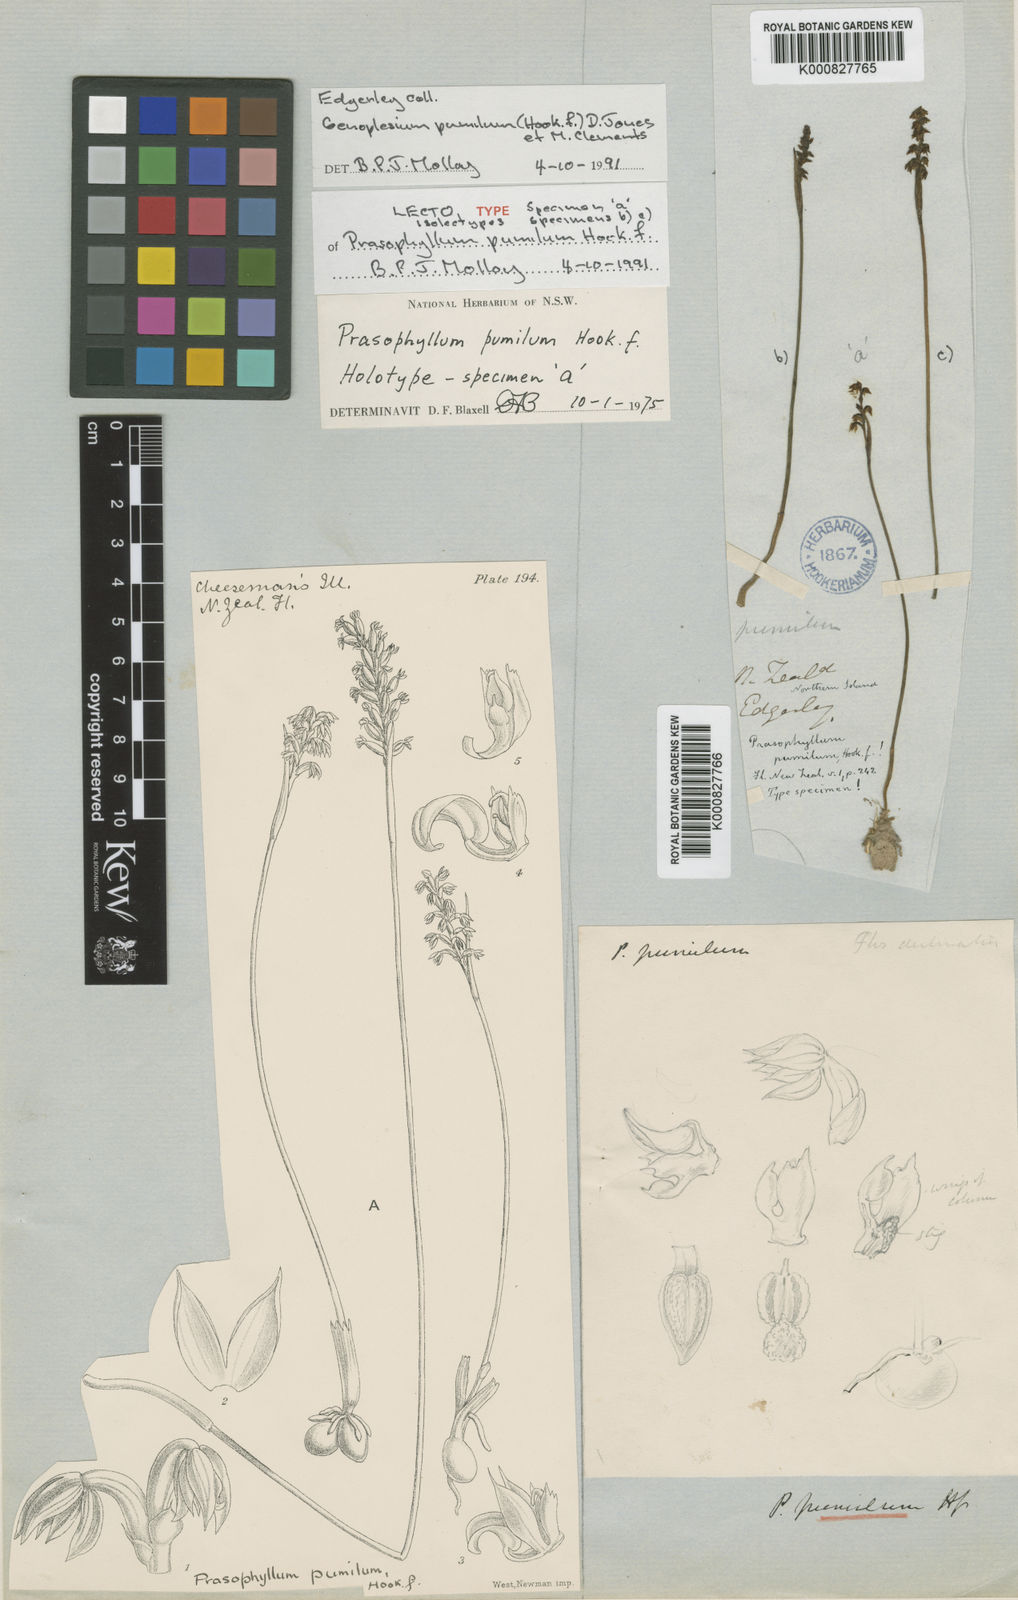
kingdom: Plantae
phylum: Tracheophyta
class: Liliopsida
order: Asparagales
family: Orchidaceae
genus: Genoplesium
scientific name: Genoplesium pumilum
